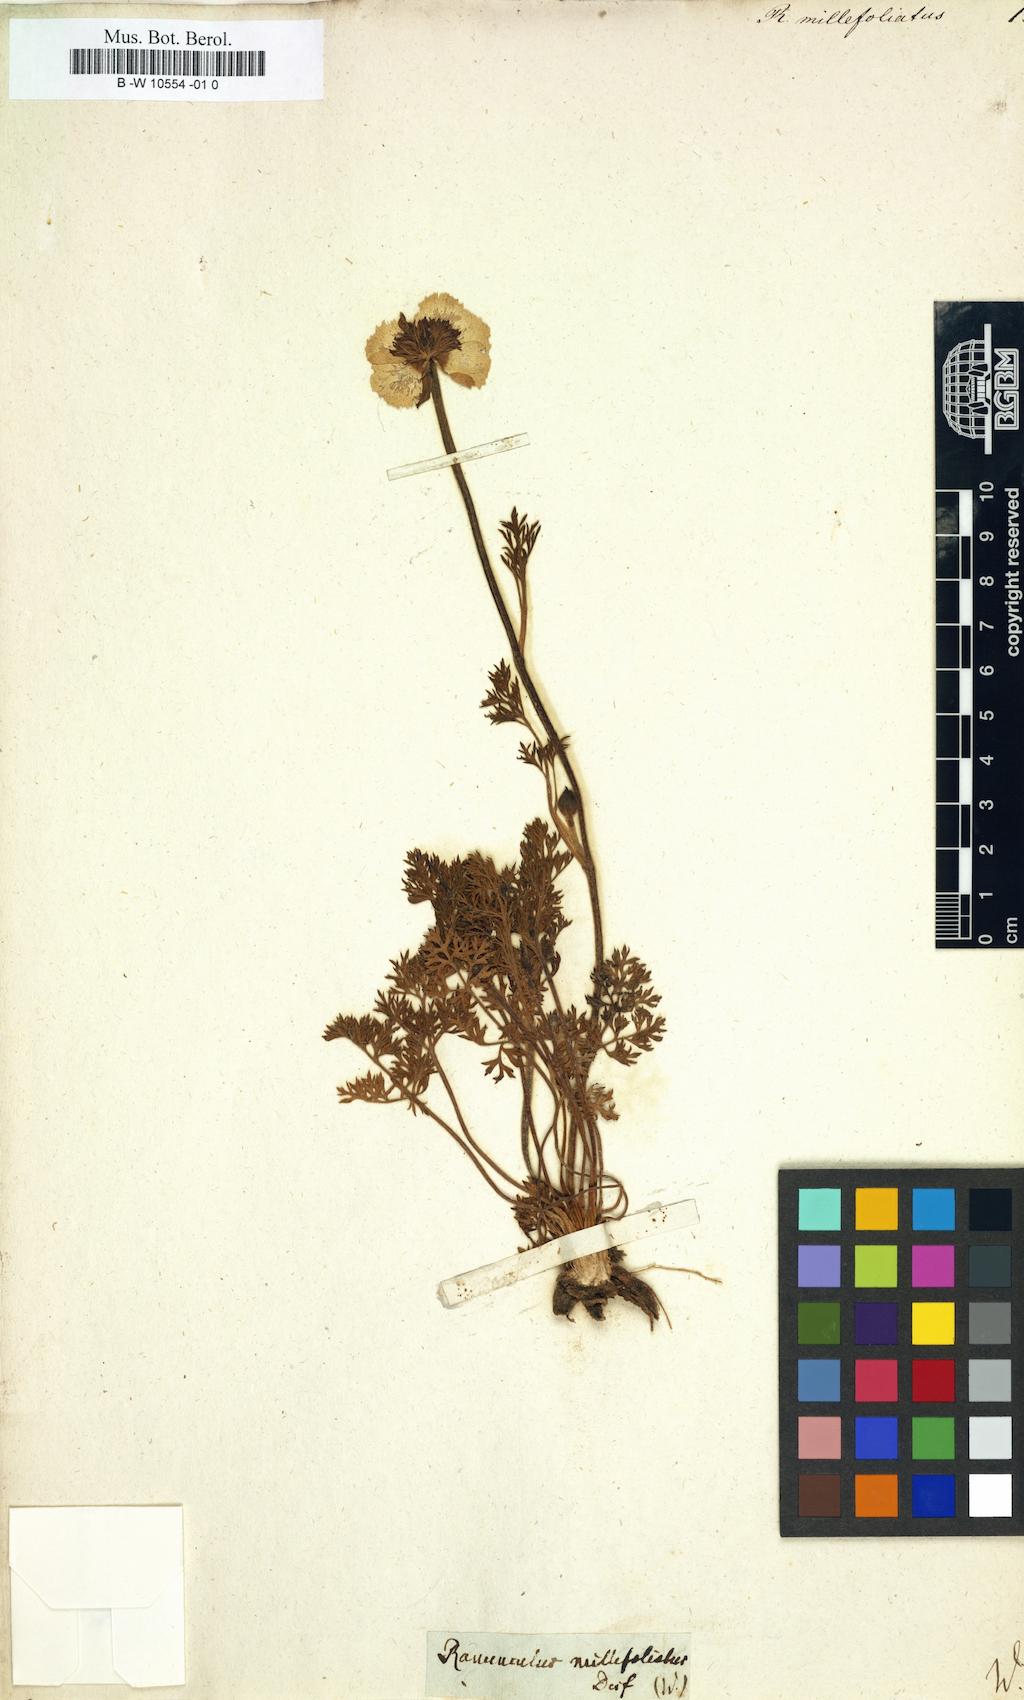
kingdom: Plantae
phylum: Tracheophyta
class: Magnoliopsida
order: Ranunculales
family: Ranunculaceae
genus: Ranunculus
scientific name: Ranunculus millefoliatus
